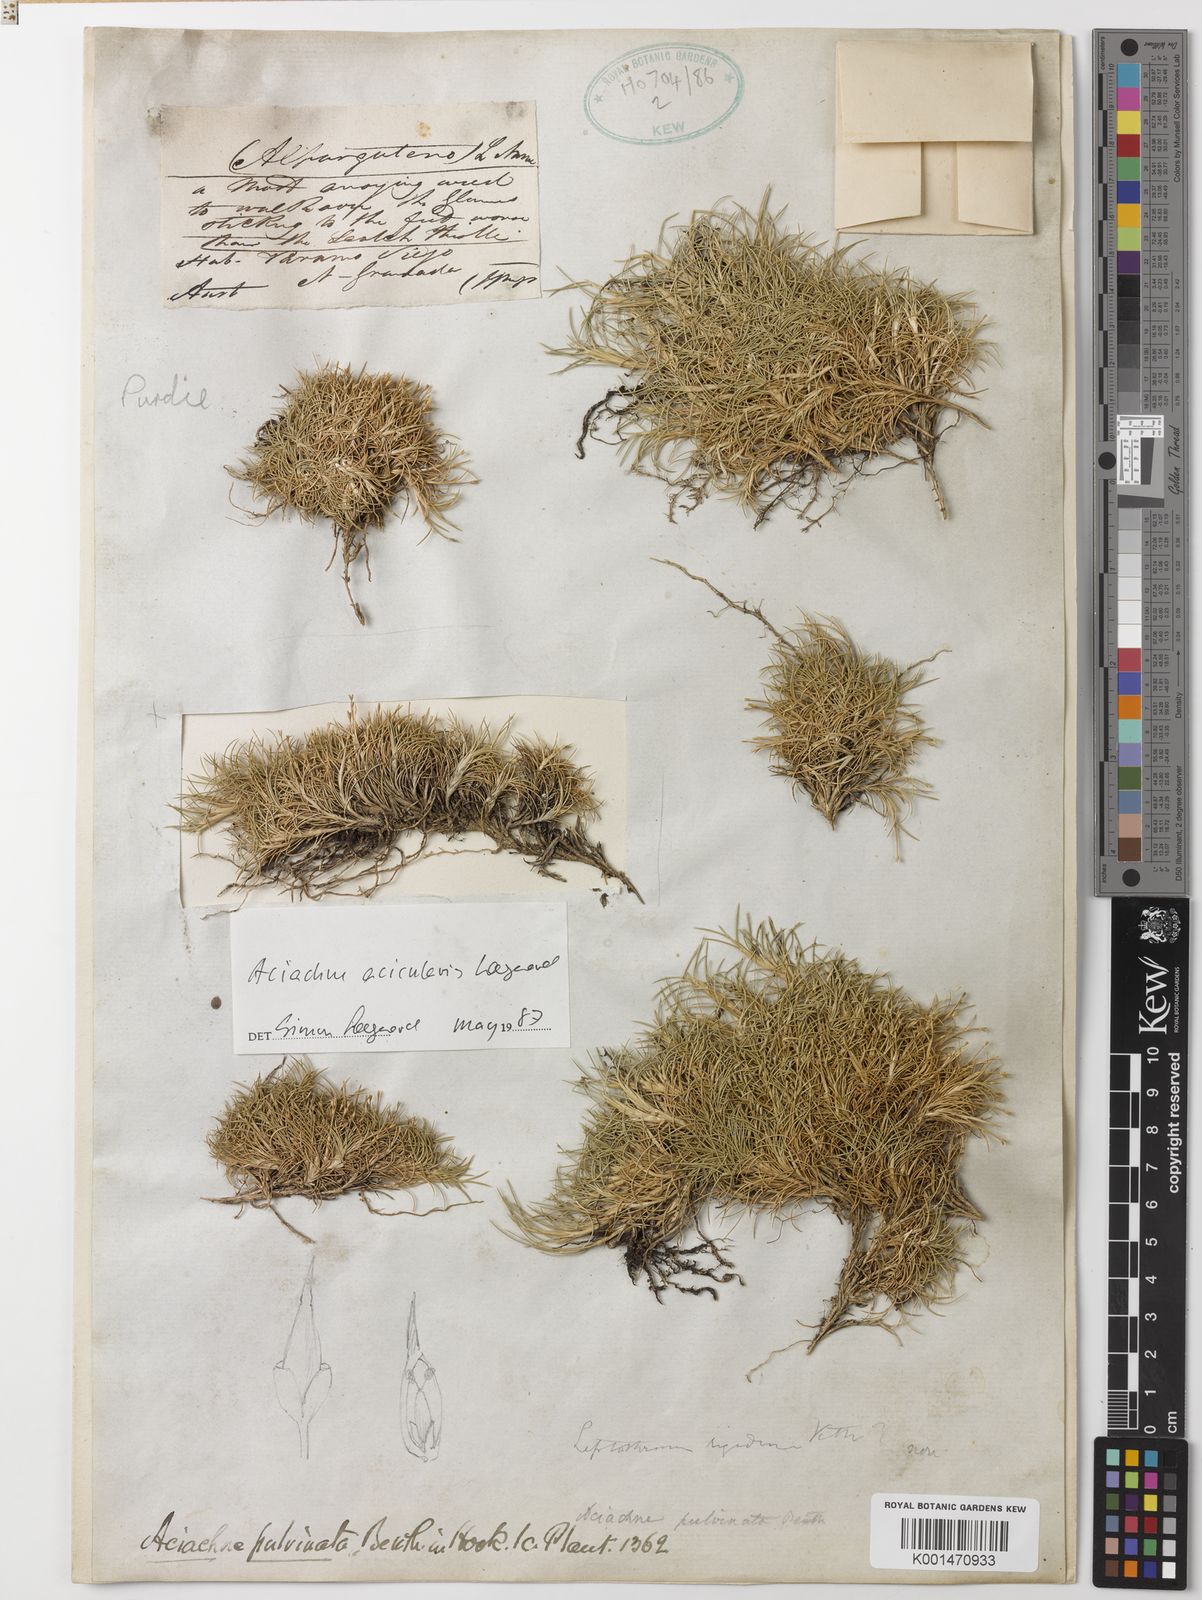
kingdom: Plantae
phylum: Tracheophyta
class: Liliopsida
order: Poales
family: Poaceae
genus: Aciachne
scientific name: Aciachne acicularis
